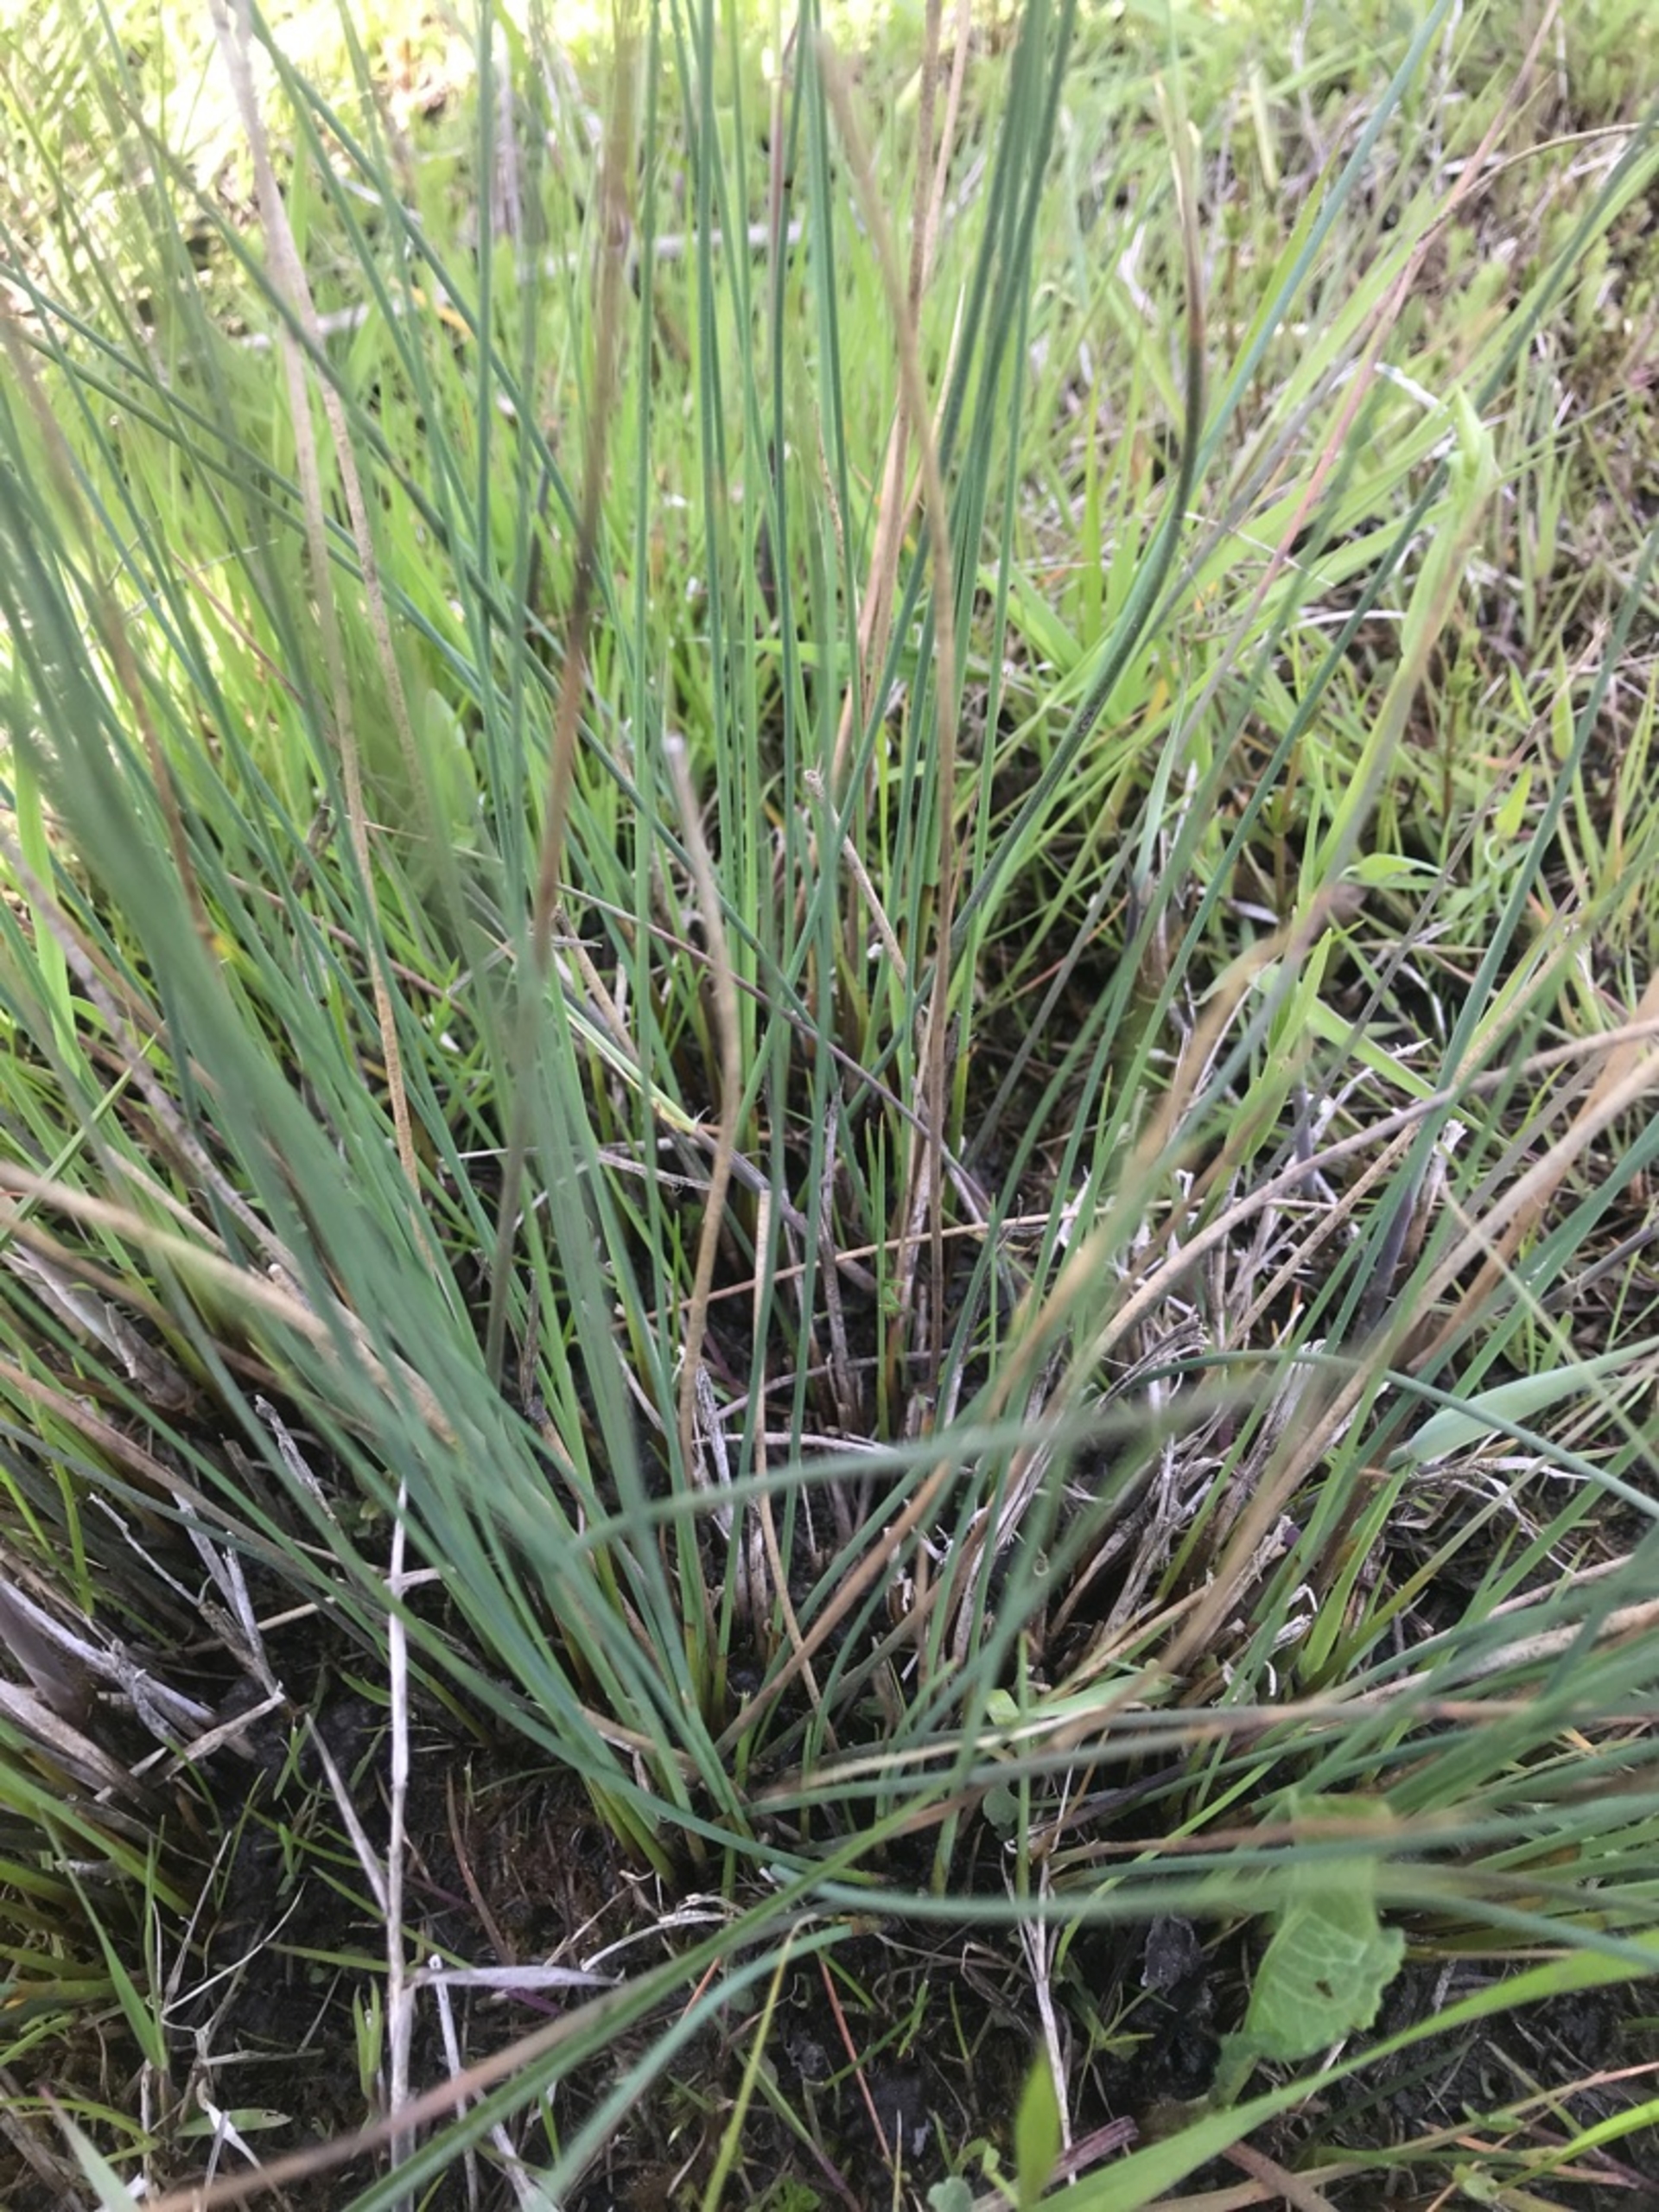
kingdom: Plantae
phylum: Tracheophyta
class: Liliopsida
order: Poales
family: Juncaceae
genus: Juncus
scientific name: Juncus inflexus
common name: Blågrå siv
